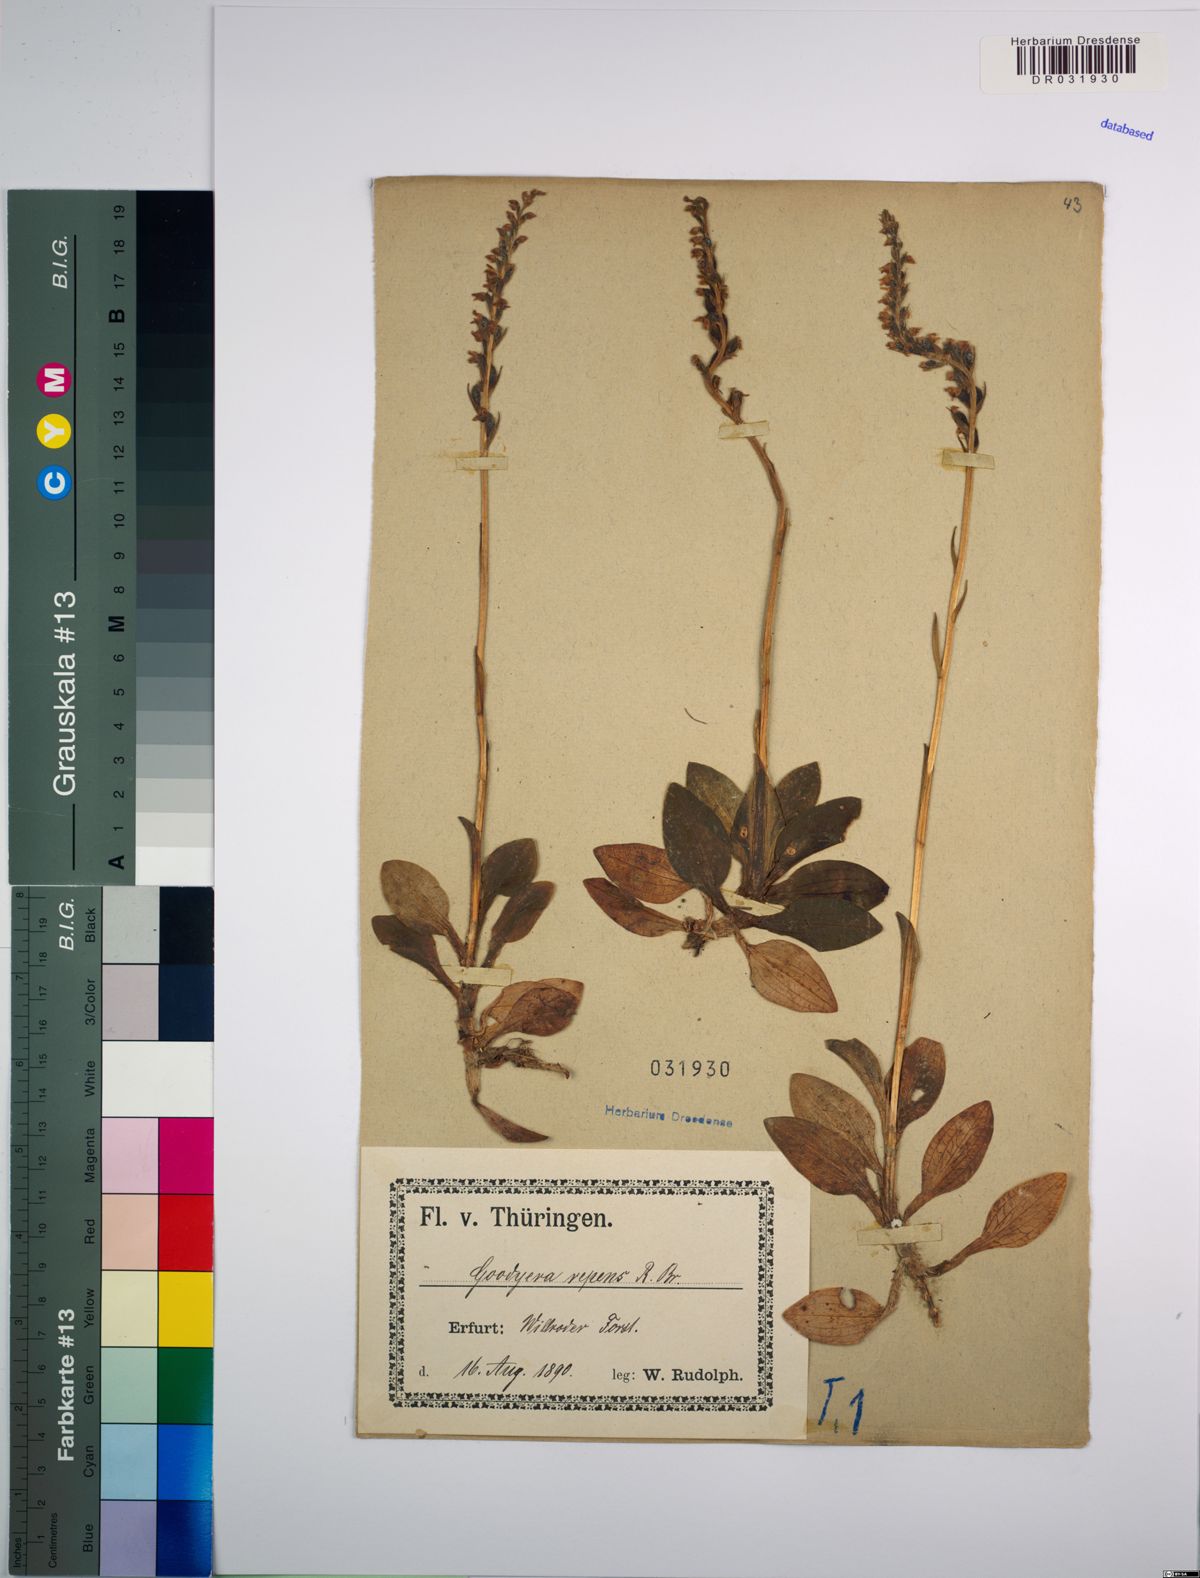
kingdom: Plantae
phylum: Tracheophyta
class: Liliopsida
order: Asparagales
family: Orchidaceae
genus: Goodyera
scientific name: Goodyera repens
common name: Creeping lady's-tresses
